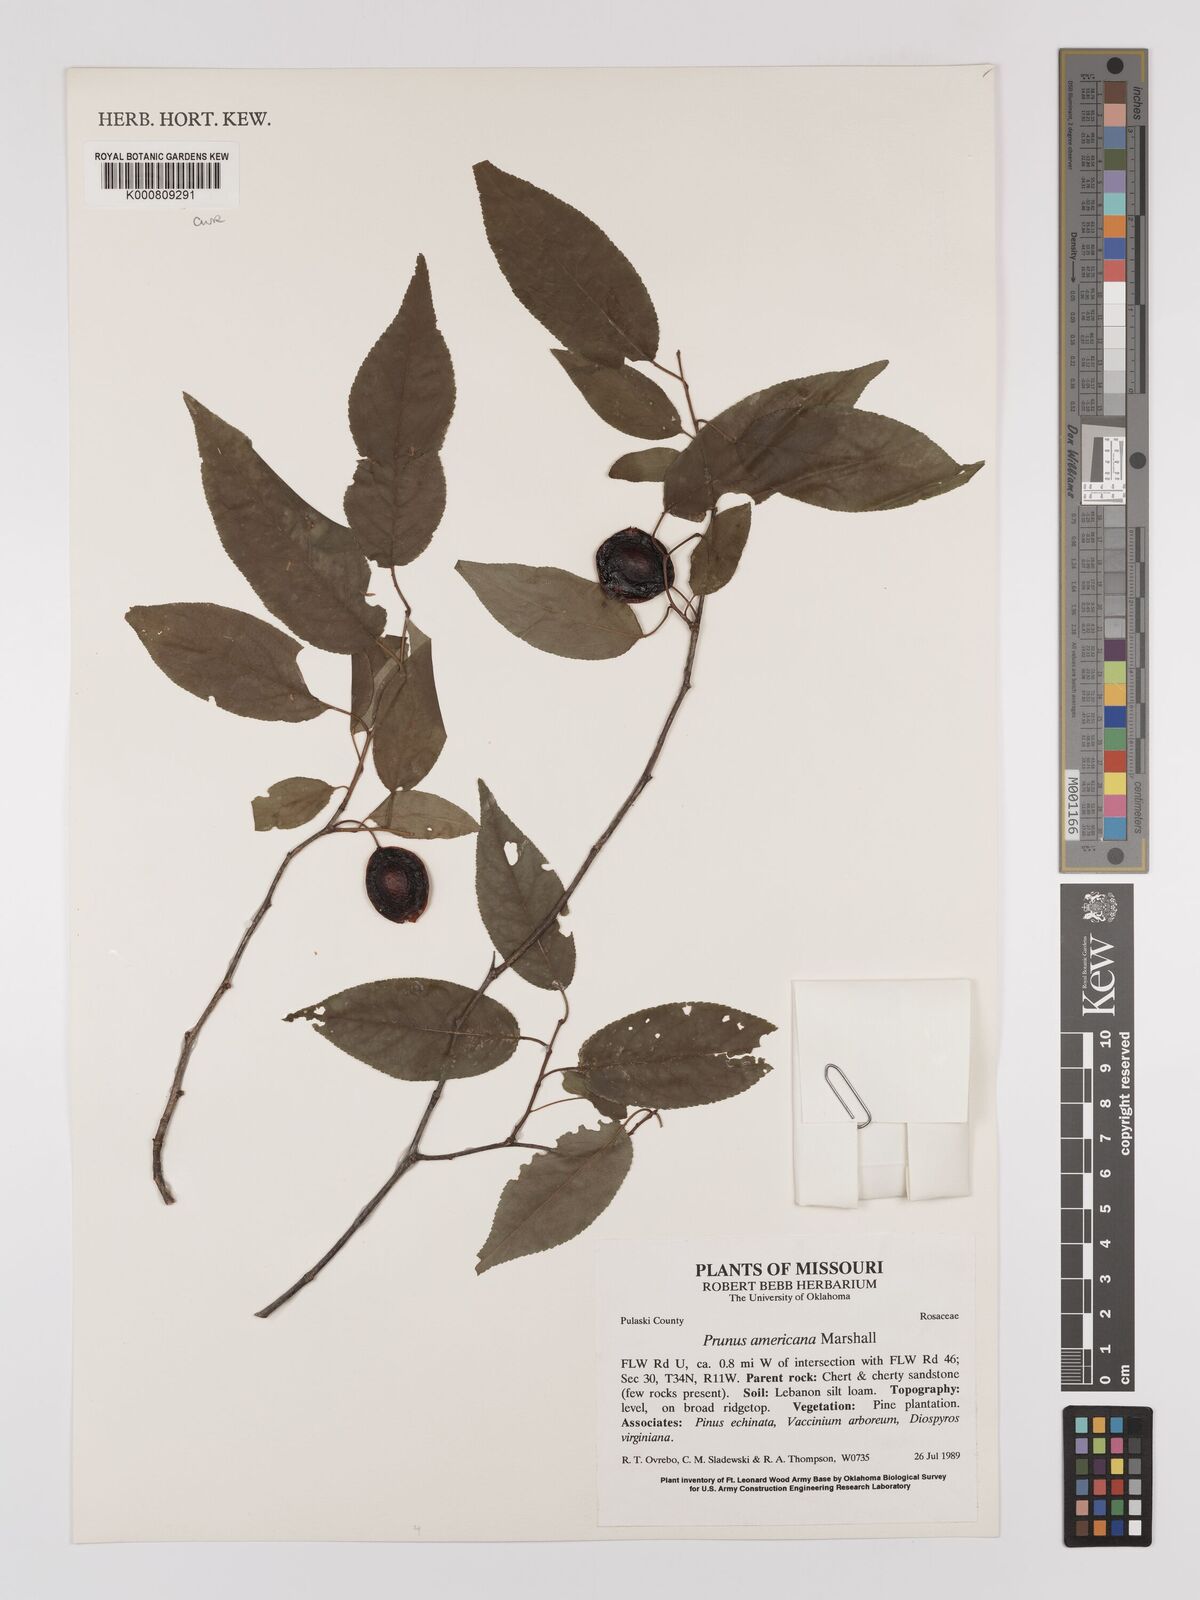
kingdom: Plantae
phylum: Tracheophyta
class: Magnoliopsida
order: Rosales
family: Rosaceae
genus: Prunus
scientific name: Prunus americana
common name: American plum
